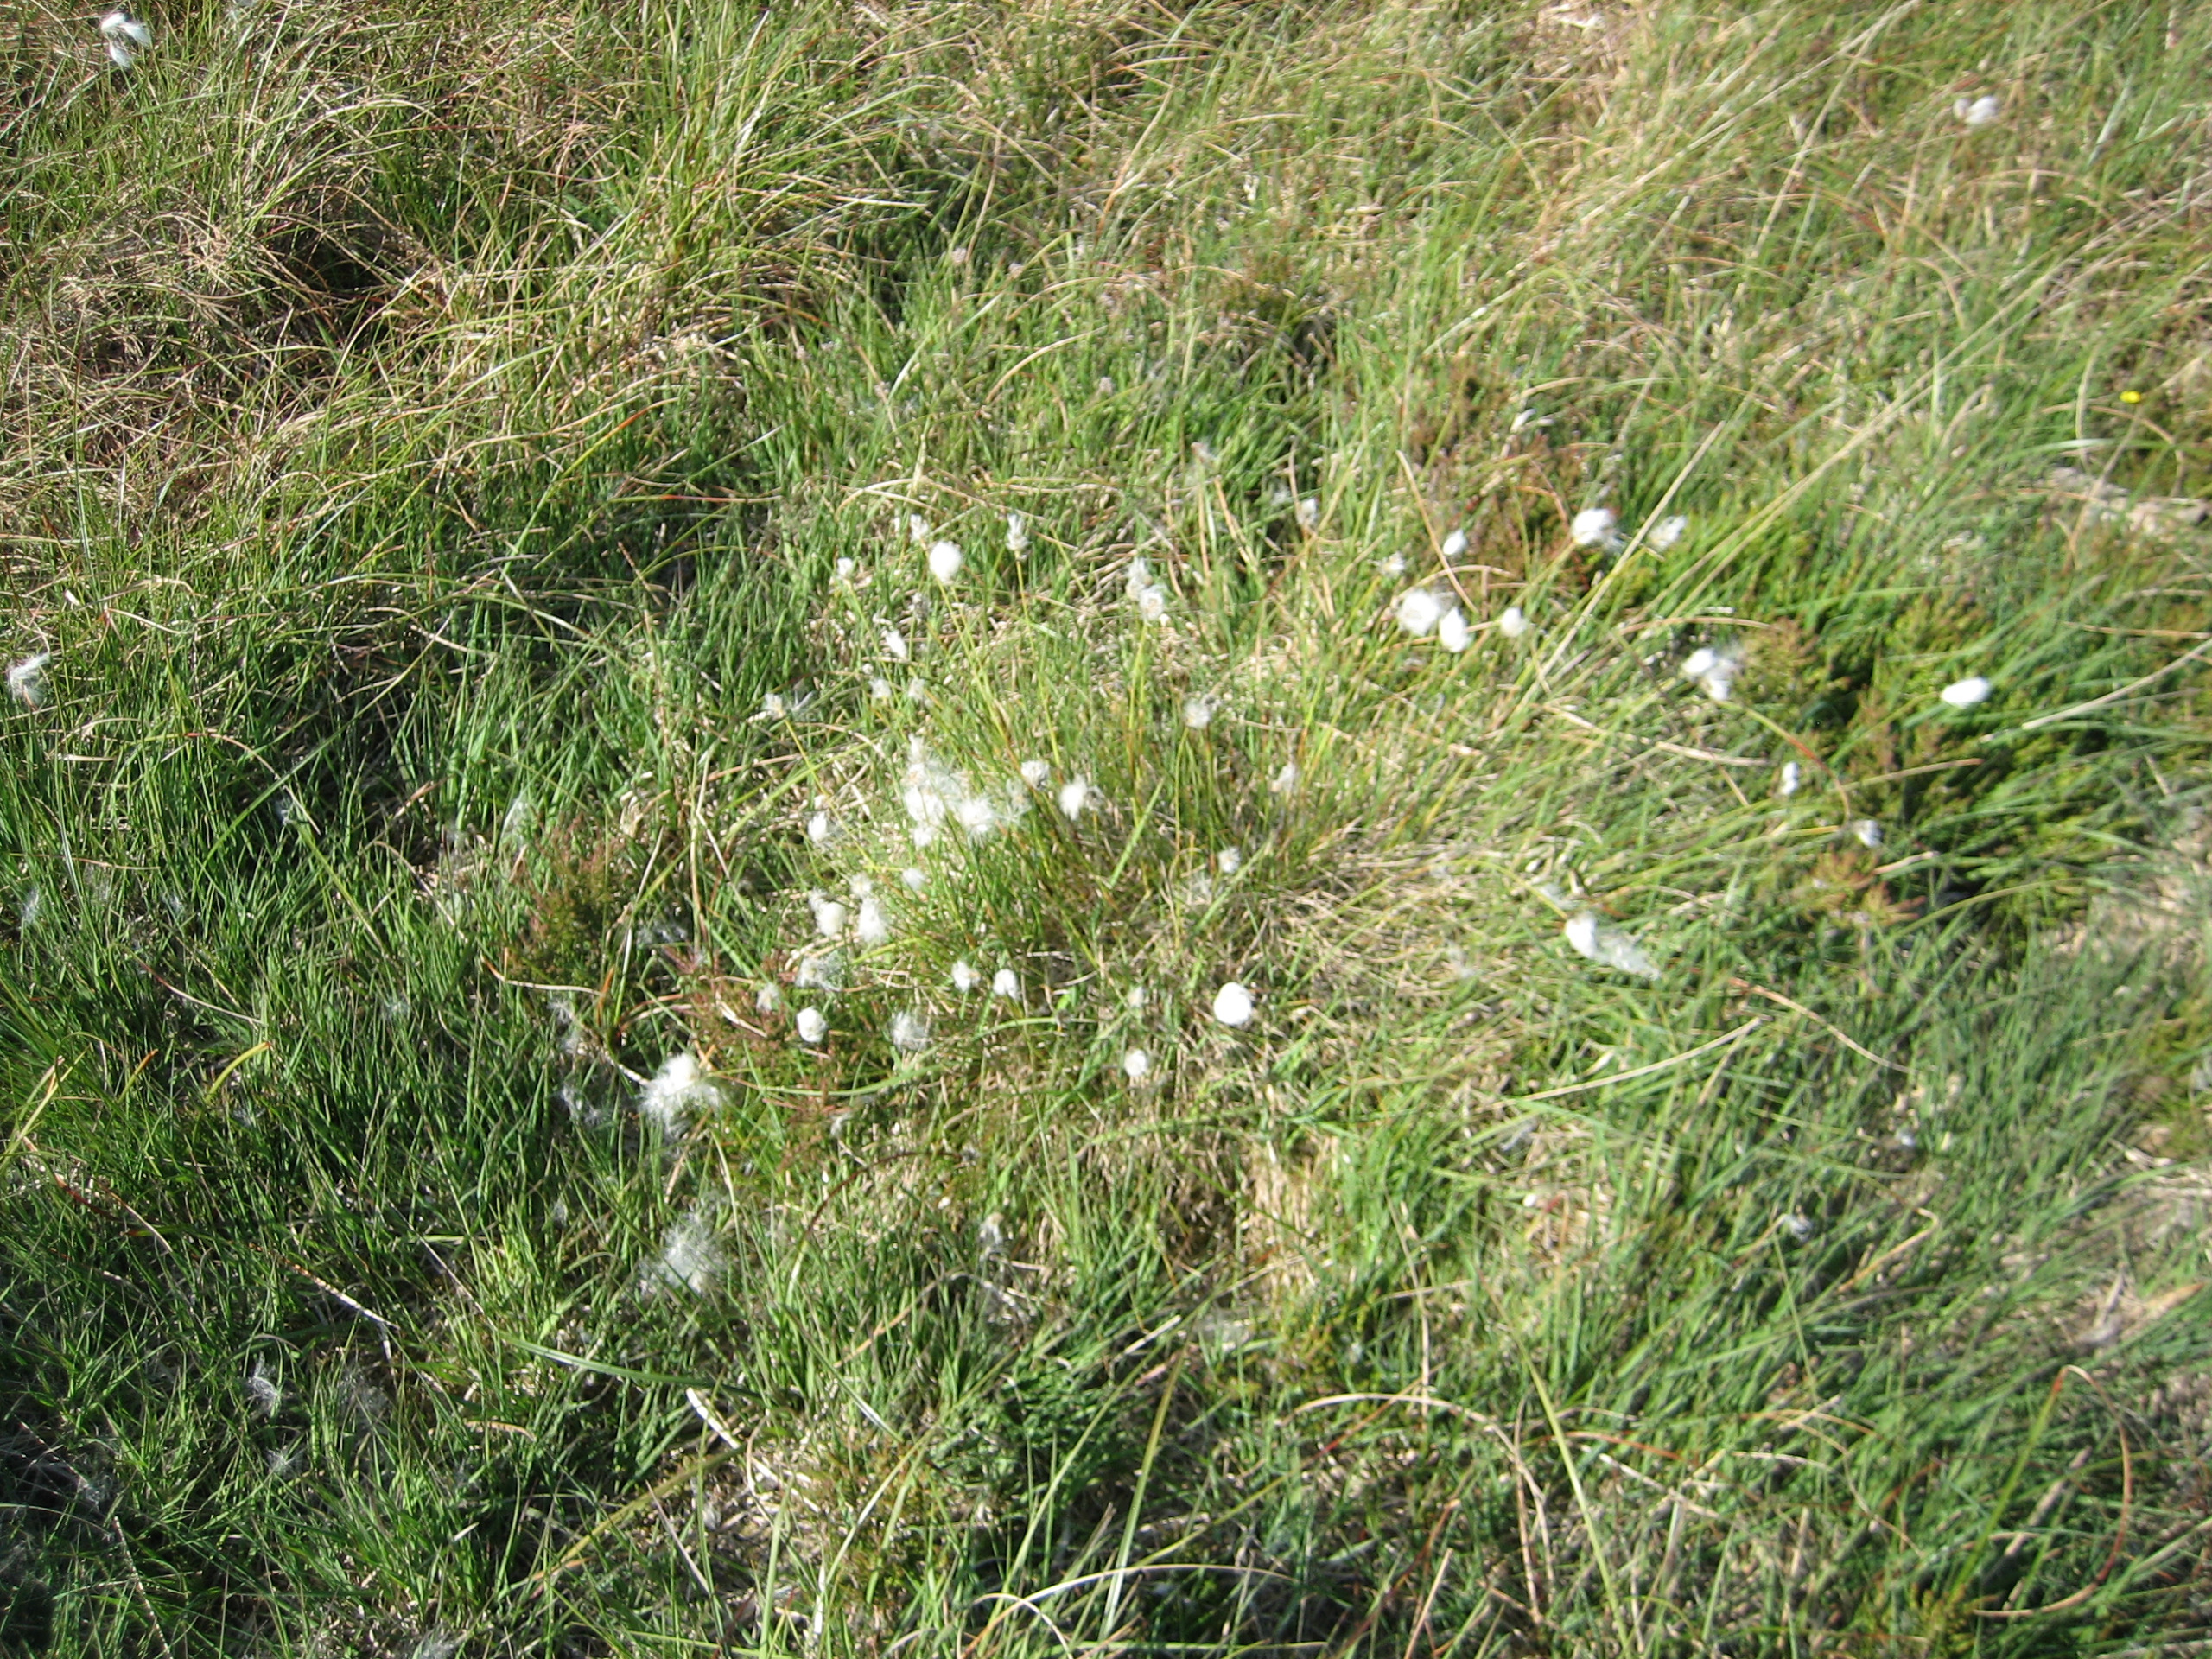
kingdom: Plantae
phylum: Tracheophyta
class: Liliopsida
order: Poales
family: Cyperaceae
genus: Eriophorum
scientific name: Eriophorum vaginatum
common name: Tue-kæruld
